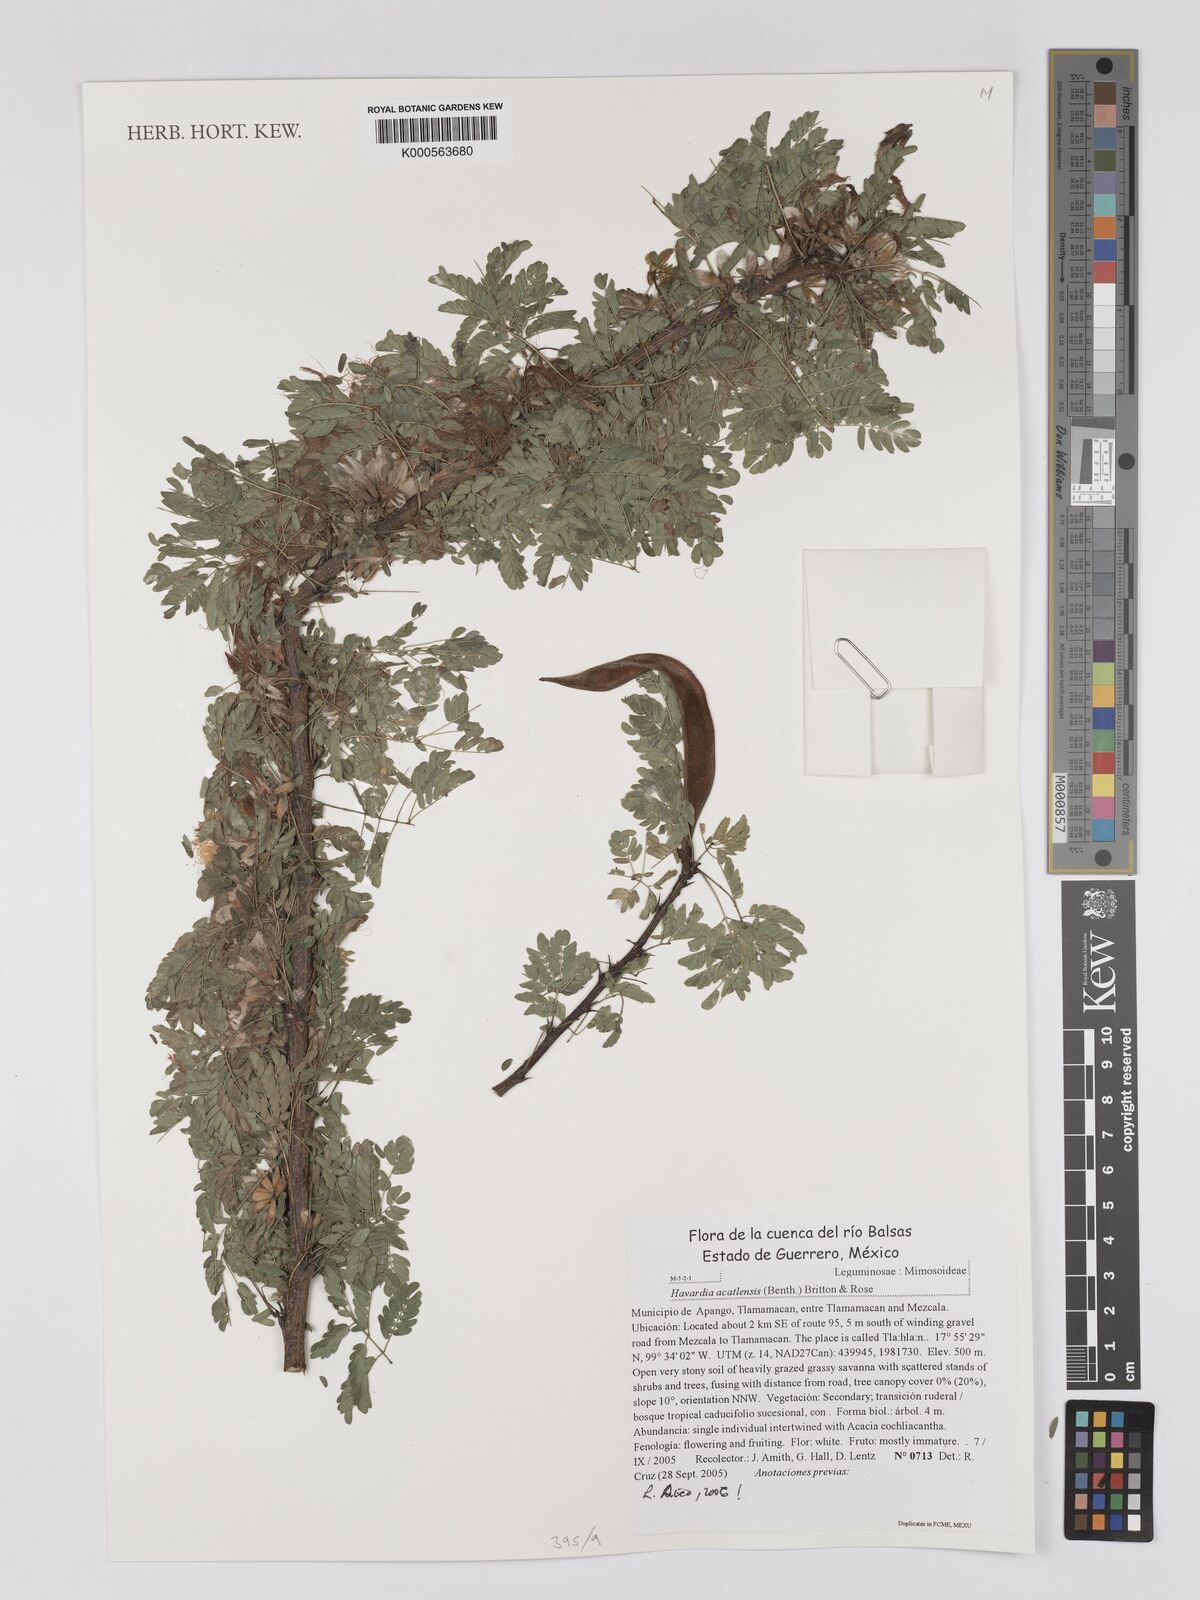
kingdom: Plantae
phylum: Tracheophyta
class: Magnoliopsida
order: Fabales
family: Fabaceae
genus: Havardia
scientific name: Havardia acatlensis
